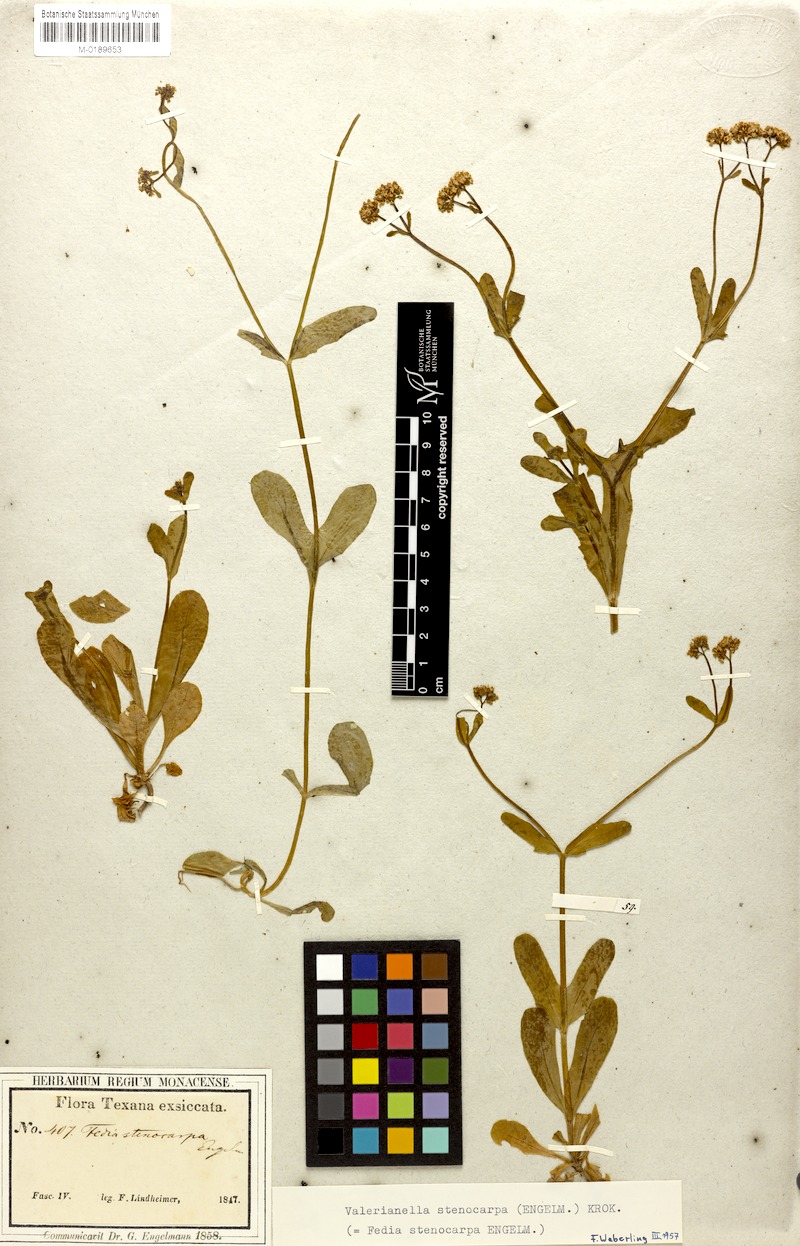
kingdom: Plantae
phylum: Tracheophyta
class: Magnoliopsida
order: Dipsacales
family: Caprifoliaceae
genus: Valerianella
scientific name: Valerianella stenocarpa
